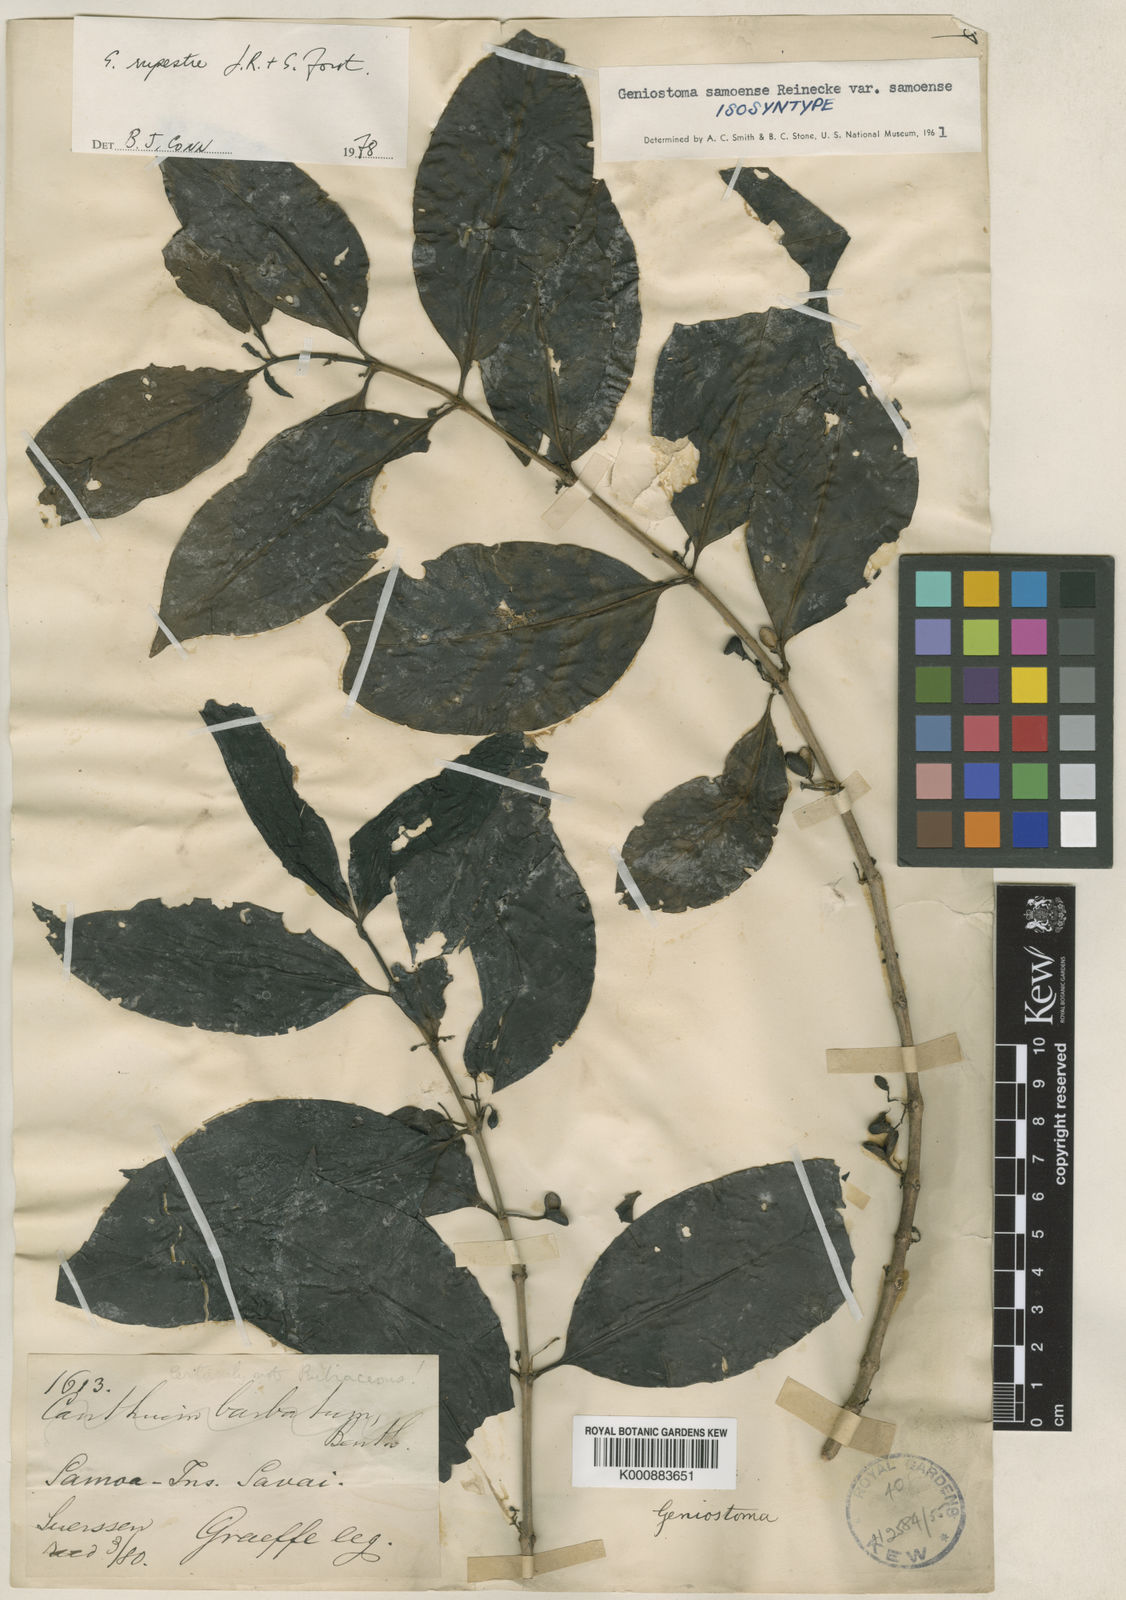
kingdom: Plantae
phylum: Tracheophyta
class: Magnoliopsida
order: Gentianales
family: Loganiaceae
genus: Geniostoma
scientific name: Geniostoma rupestre
